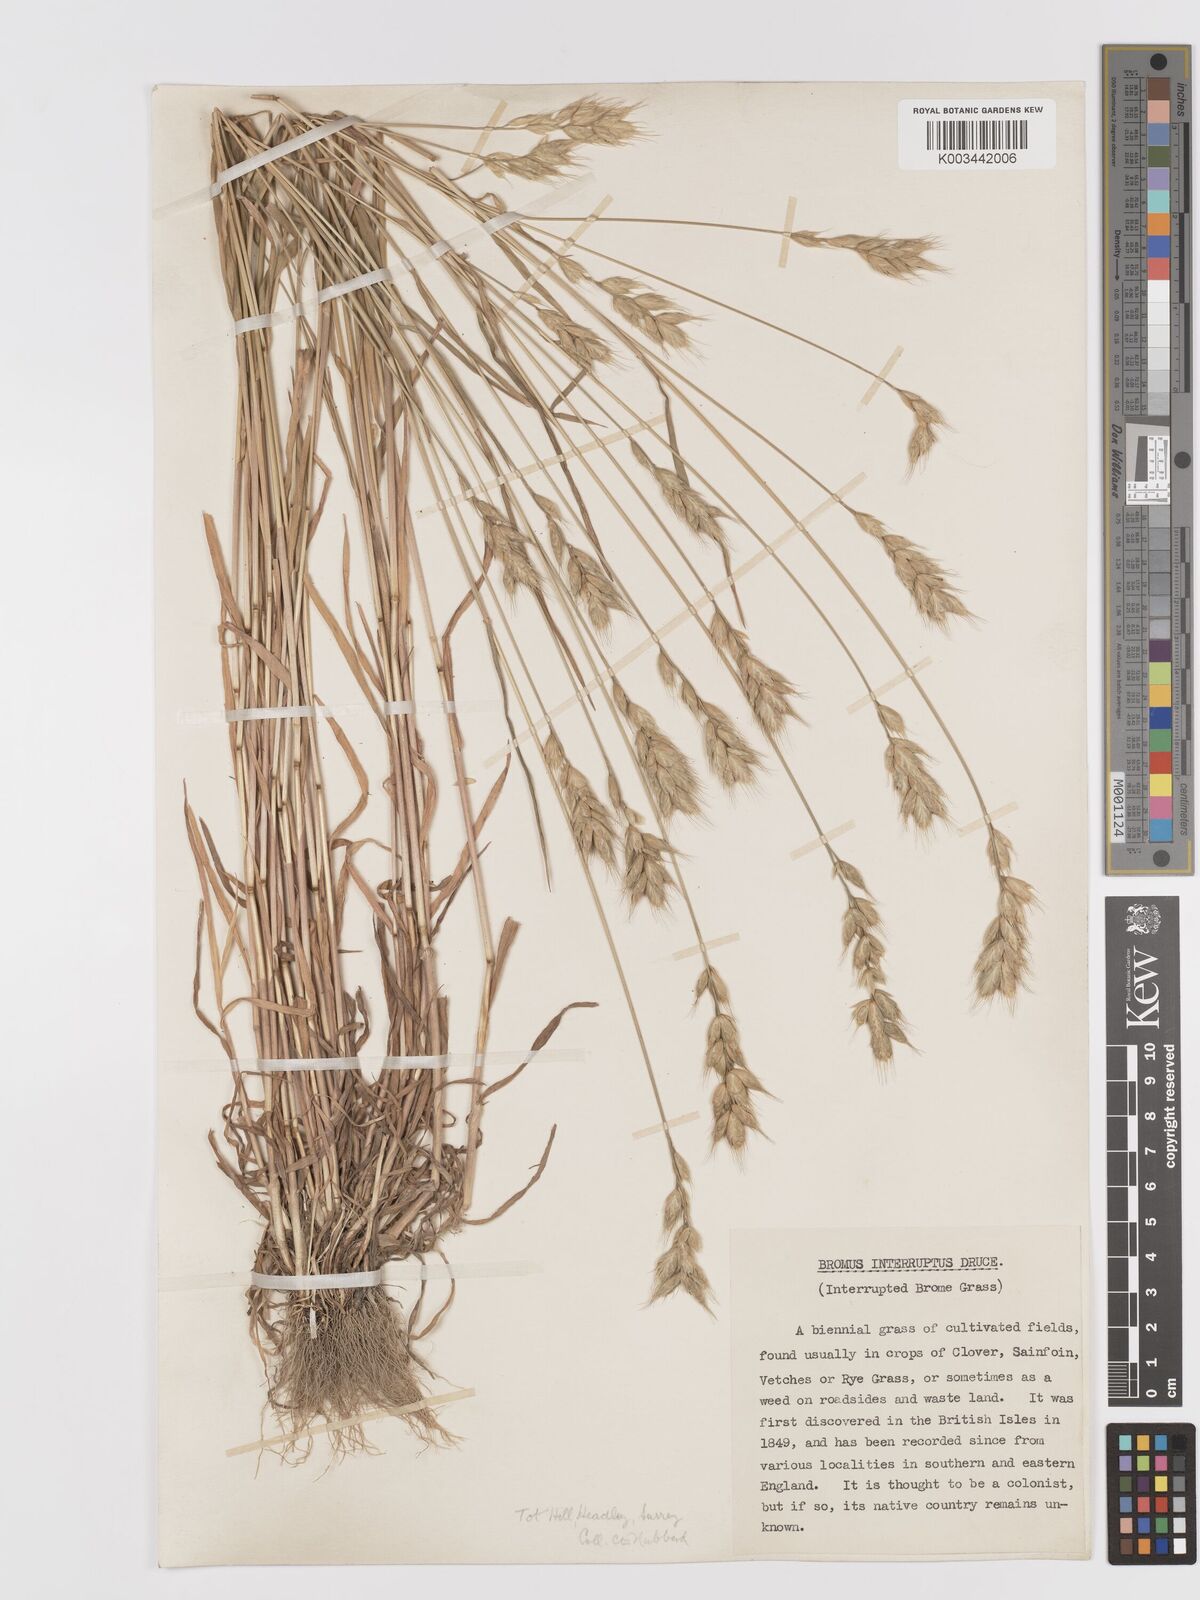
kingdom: Plantae
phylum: Tracheophyta
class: Liliopsida
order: Poales
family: Poaceae
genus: Bromus
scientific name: Bromus interruptus
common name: Interrupted brome
